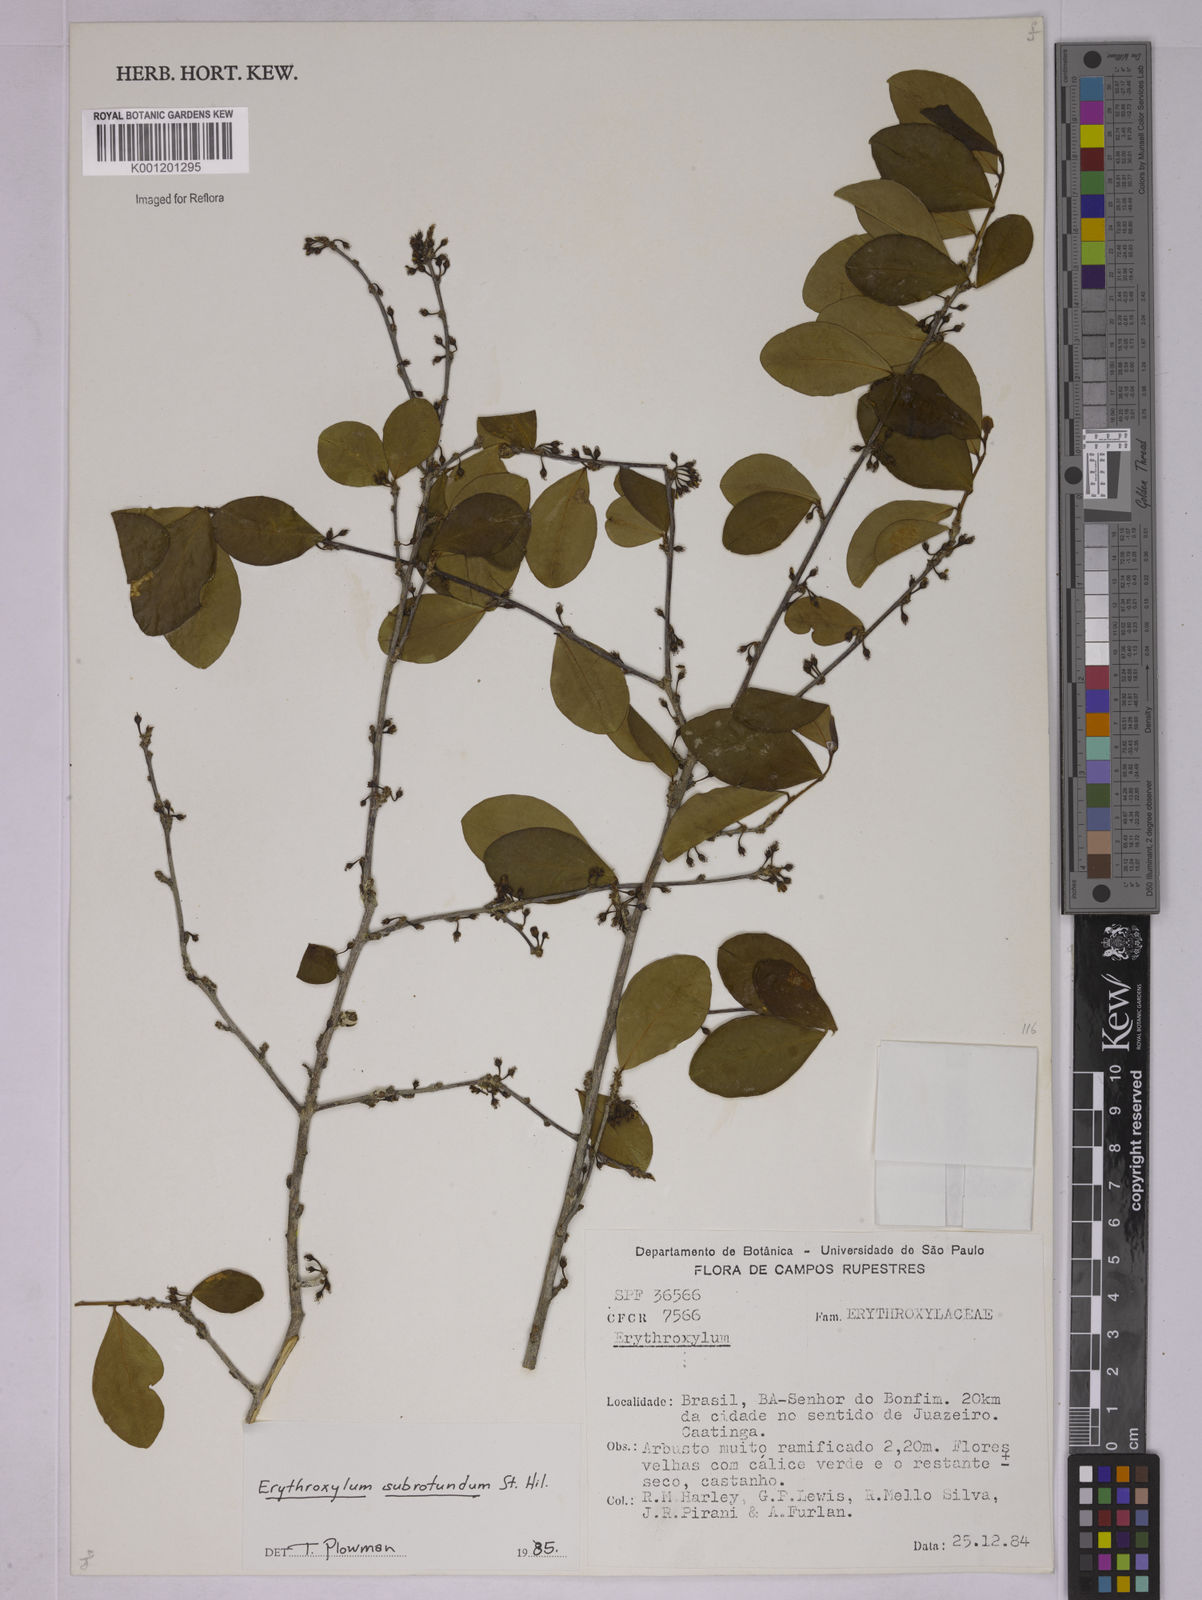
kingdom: Plantae
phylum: Tracheophyta
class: Magnoliopsida
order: Malpighiales
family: Erythroxylaceae
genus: Erythroxylum
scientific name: Erythroxylum subrotundum
